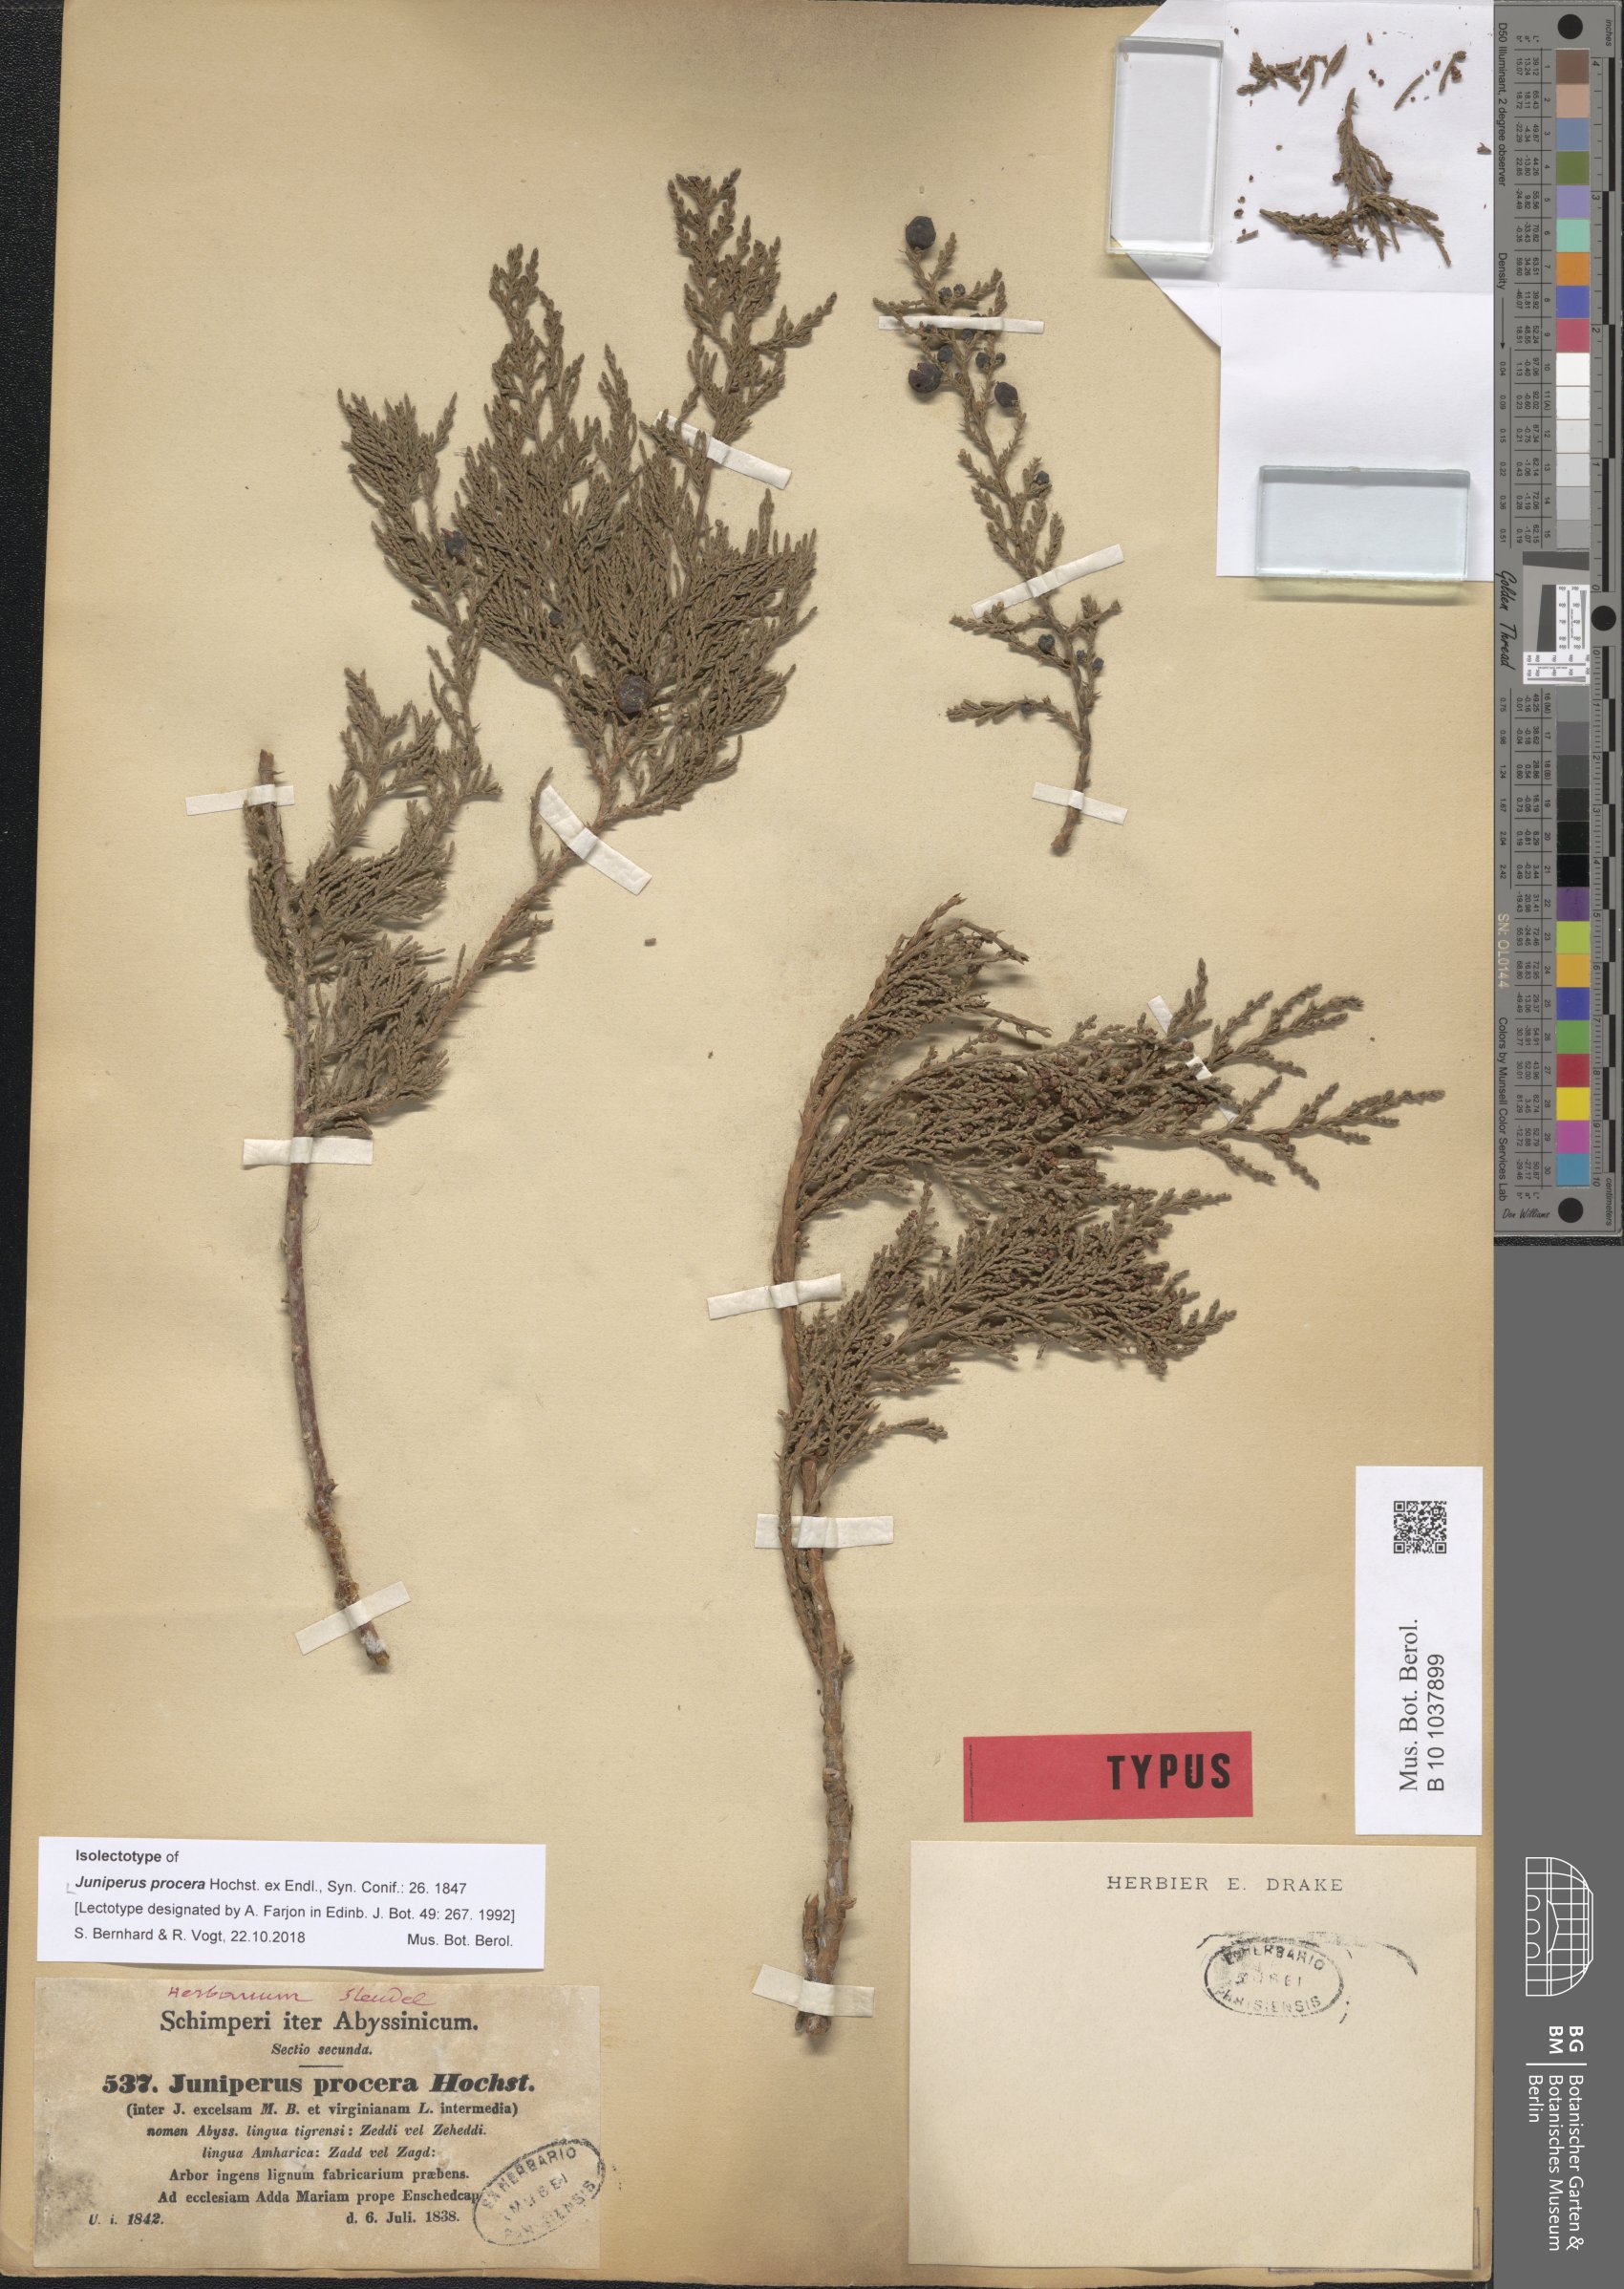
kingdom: Plantae
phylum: Tracheophyta
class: Pinopsida
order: Pinales
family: Cupressaceae
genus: Juniperus
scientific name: Juniperus procera
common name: African juniper
